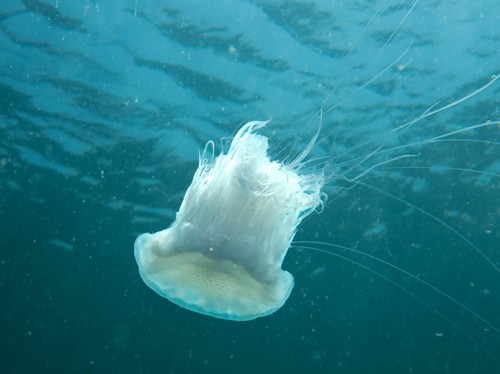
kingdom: Animalia
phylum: Cnidaria
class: Scyphozoa
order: Semaeostomeae
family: Cyaneidae
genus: Cyanea
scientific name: Cyanea nozakii
